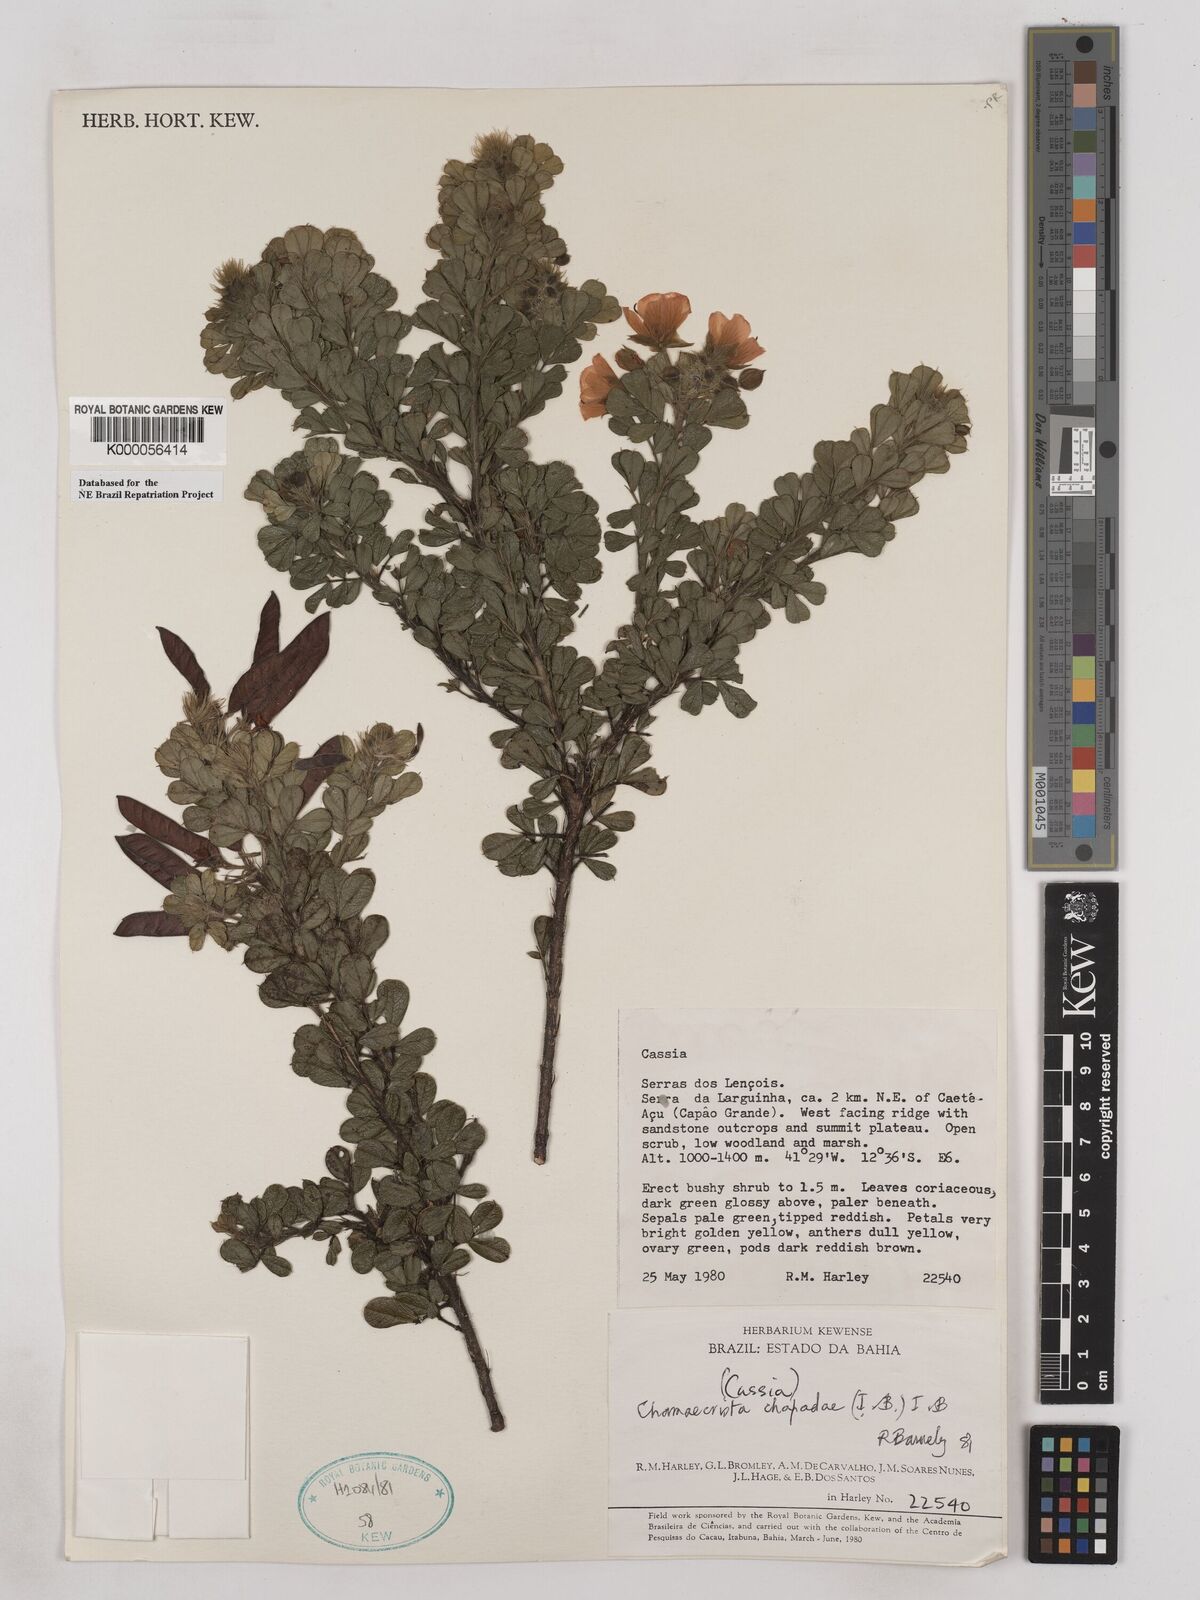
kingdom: Plantae
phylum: Tracheophyta
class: Magnoliopsida
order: Fabales
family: Fabaceae
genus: Chamaecrista
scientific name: Chamaecrista chapadae
